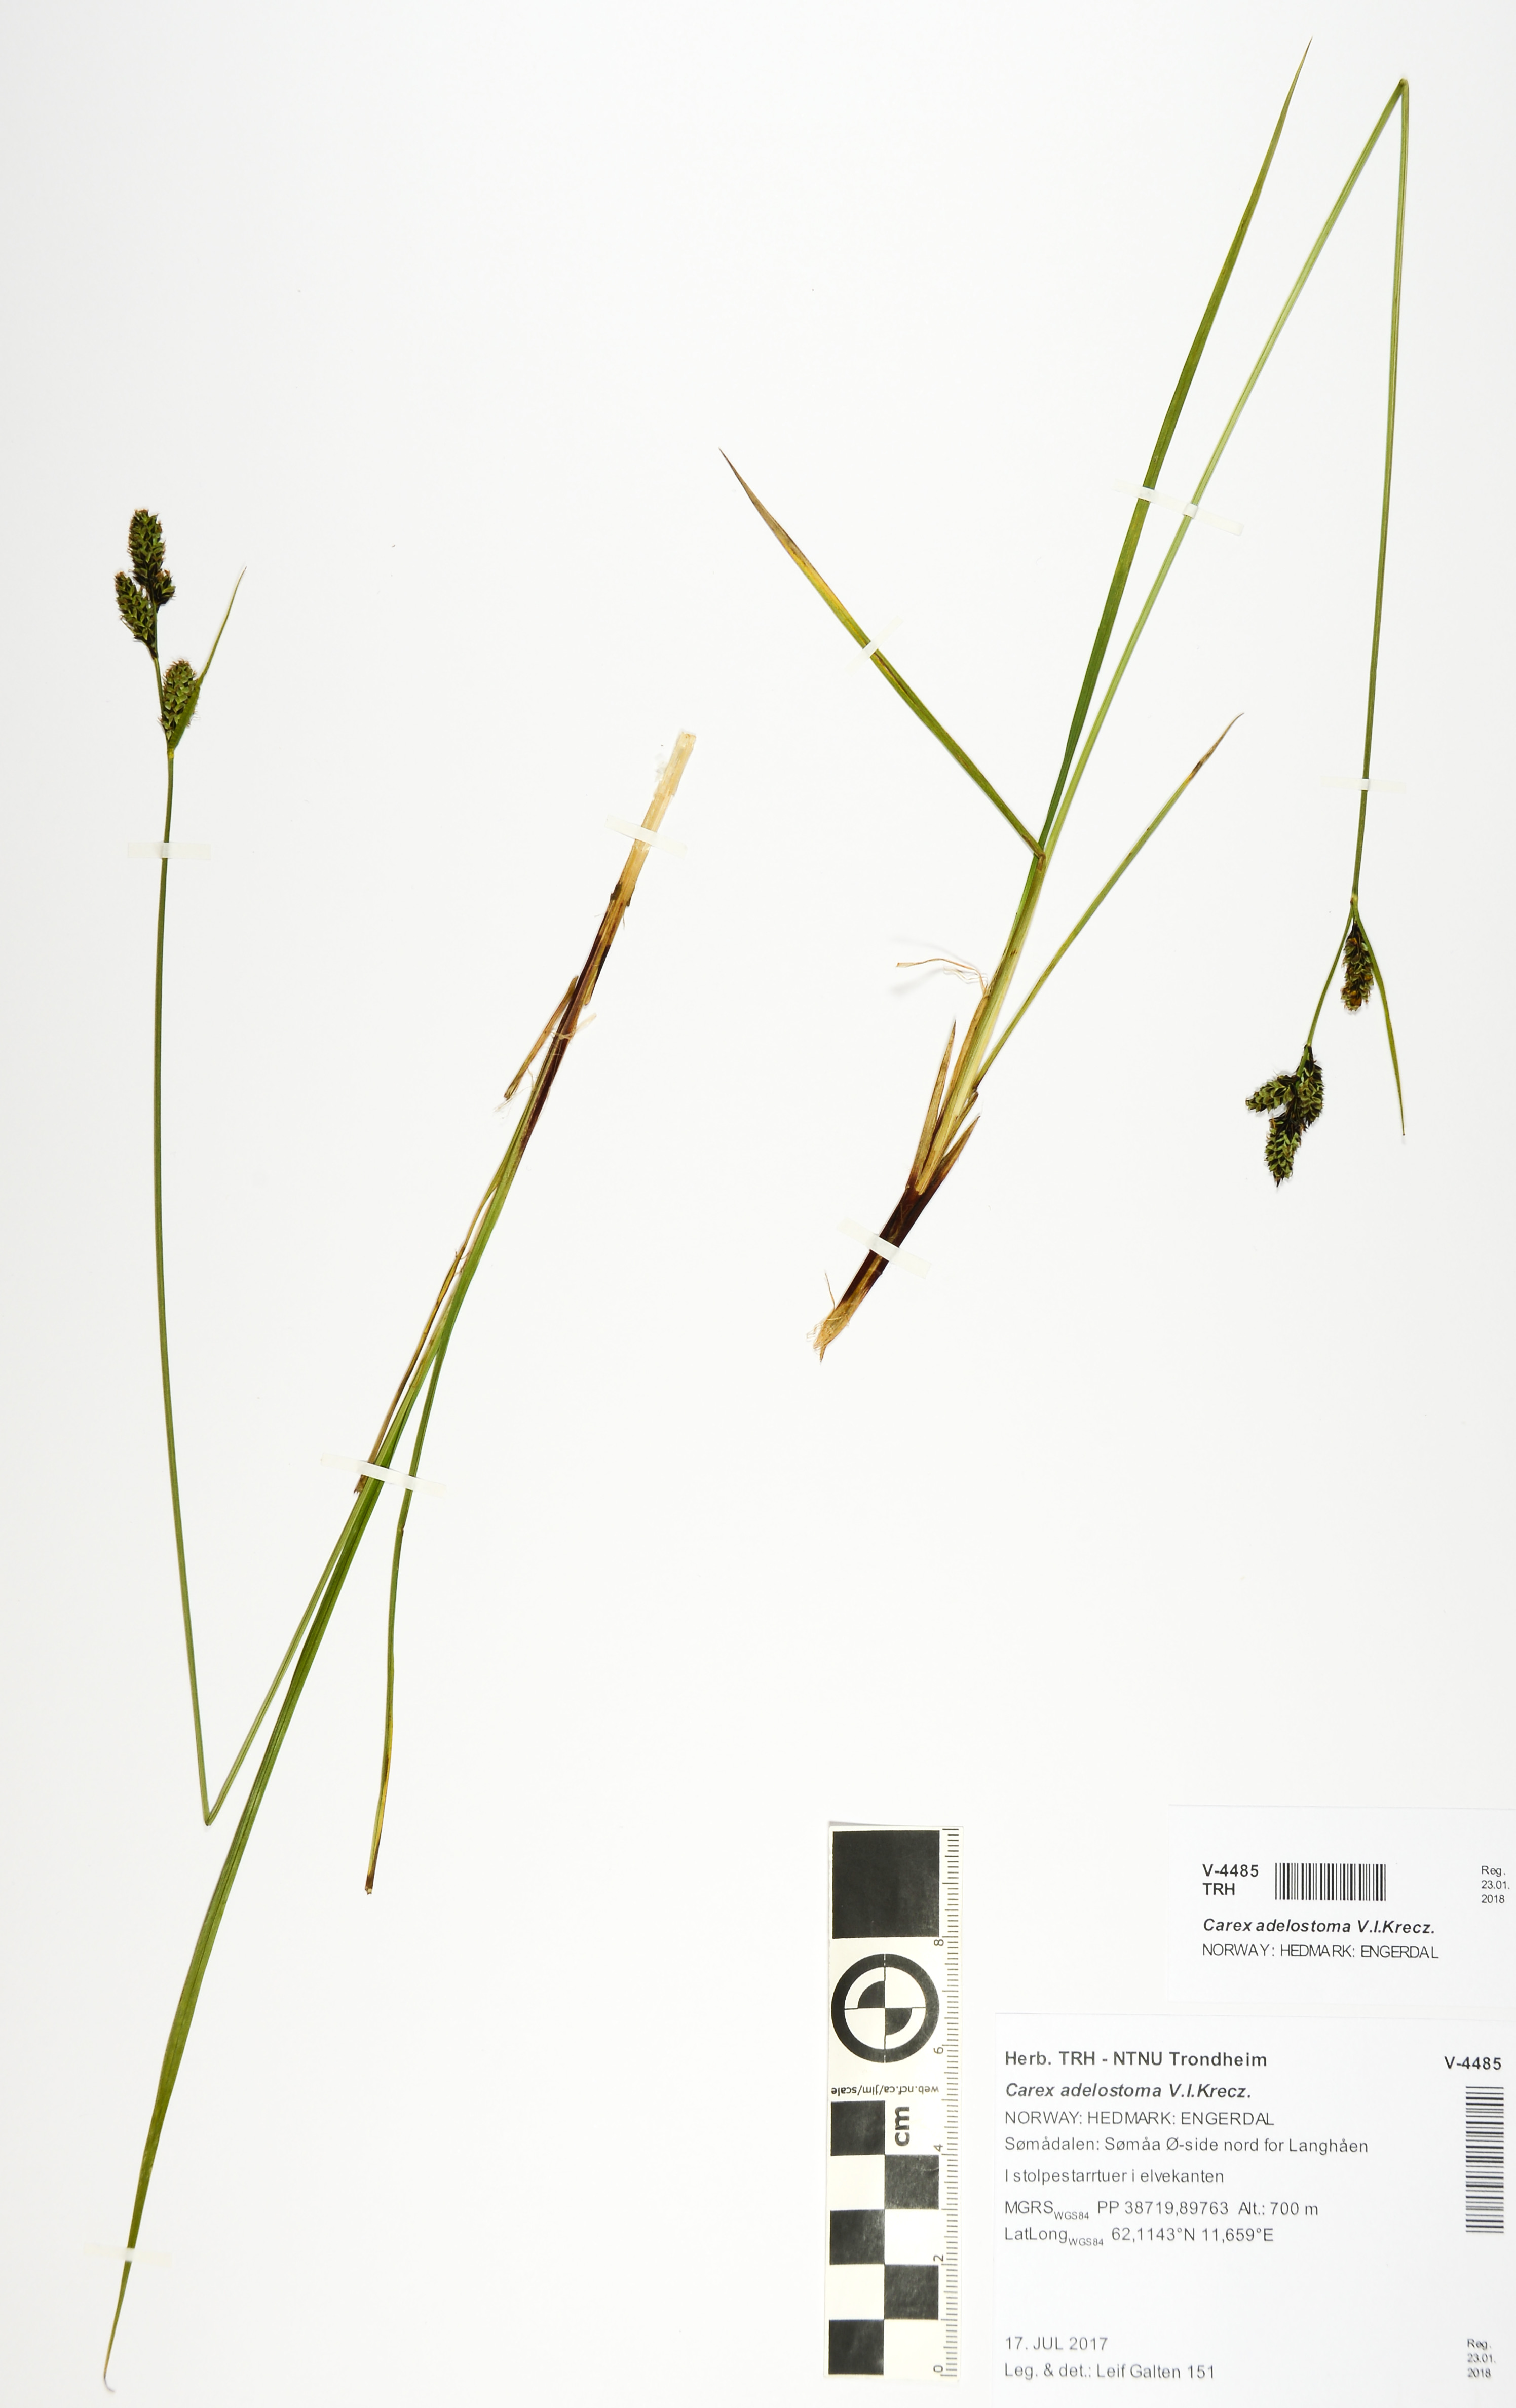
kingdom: Plantae
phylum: Tracheophyta
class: Liliopsida
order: Poales
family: Cyperaceae
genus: Carex
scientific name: Carex adelostoma
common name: Circumpolar sedge
